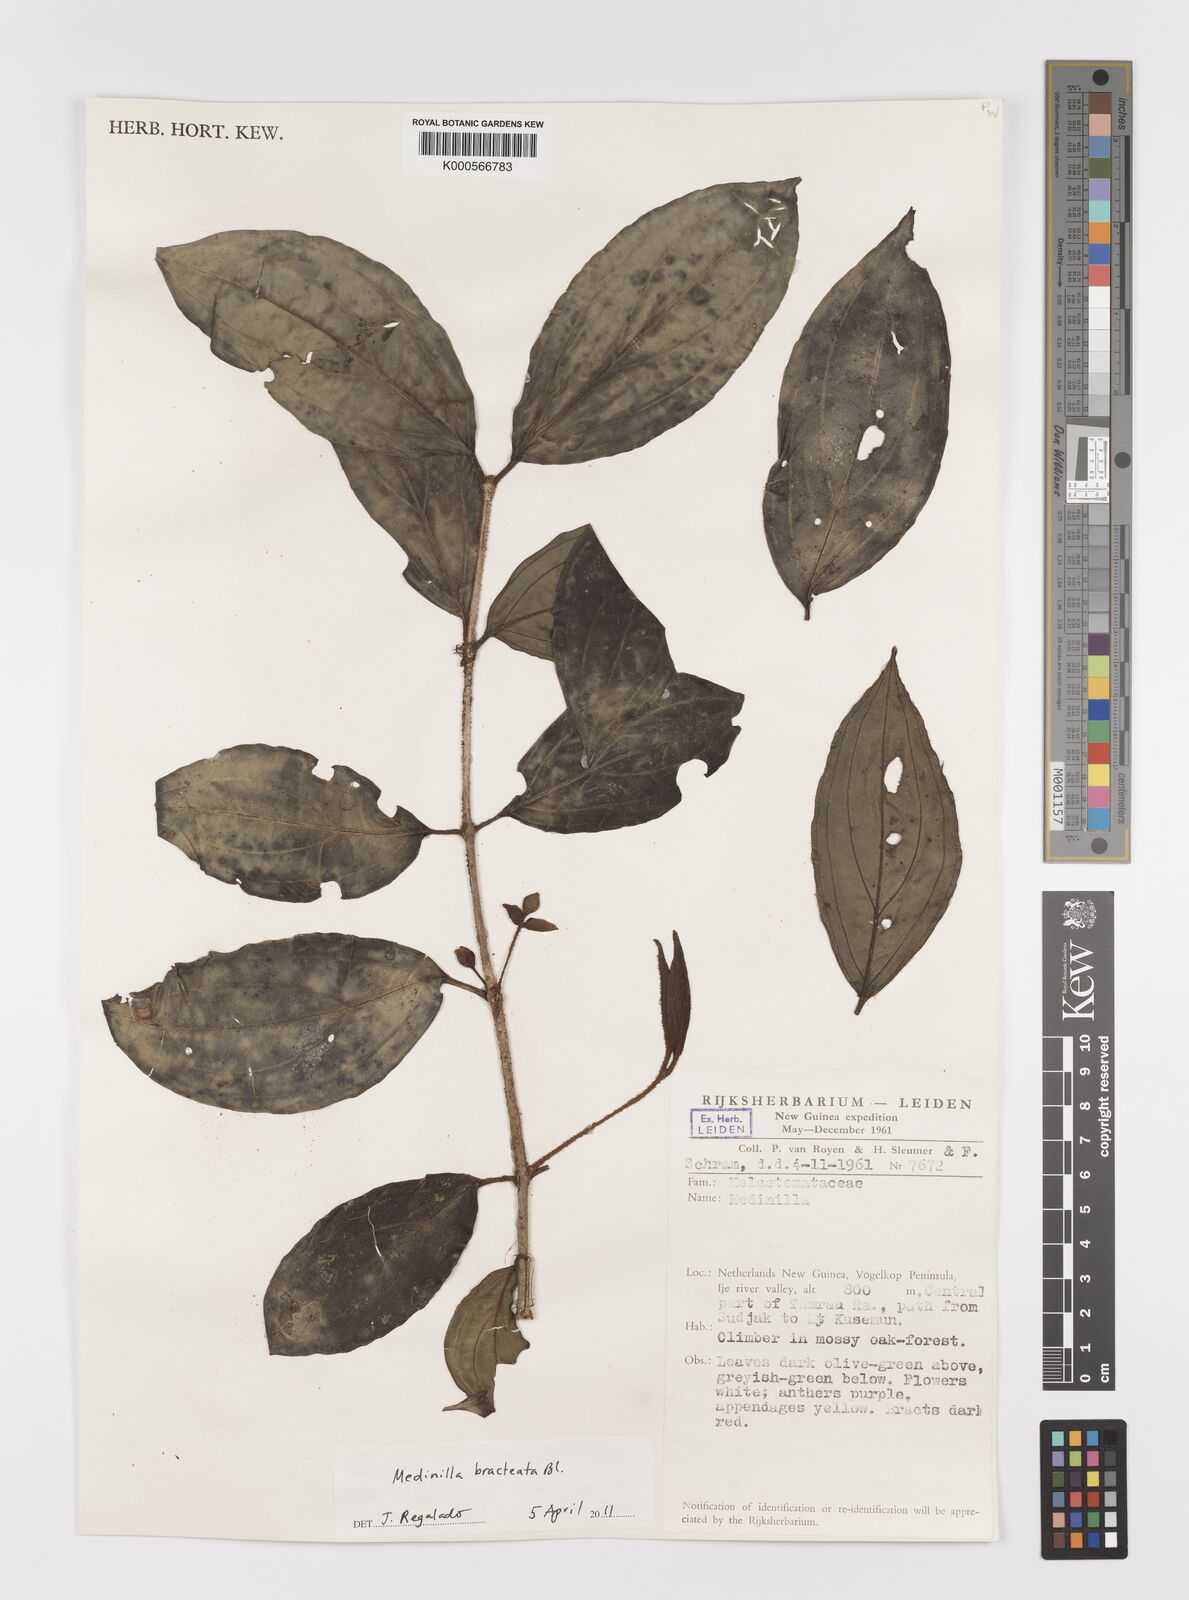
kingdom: Plantae
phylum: Tracheophyta
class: Magnoliopsida
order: Myrtales
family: Melastomataceae
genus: Medinilla
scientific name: Medinilla bracteata
